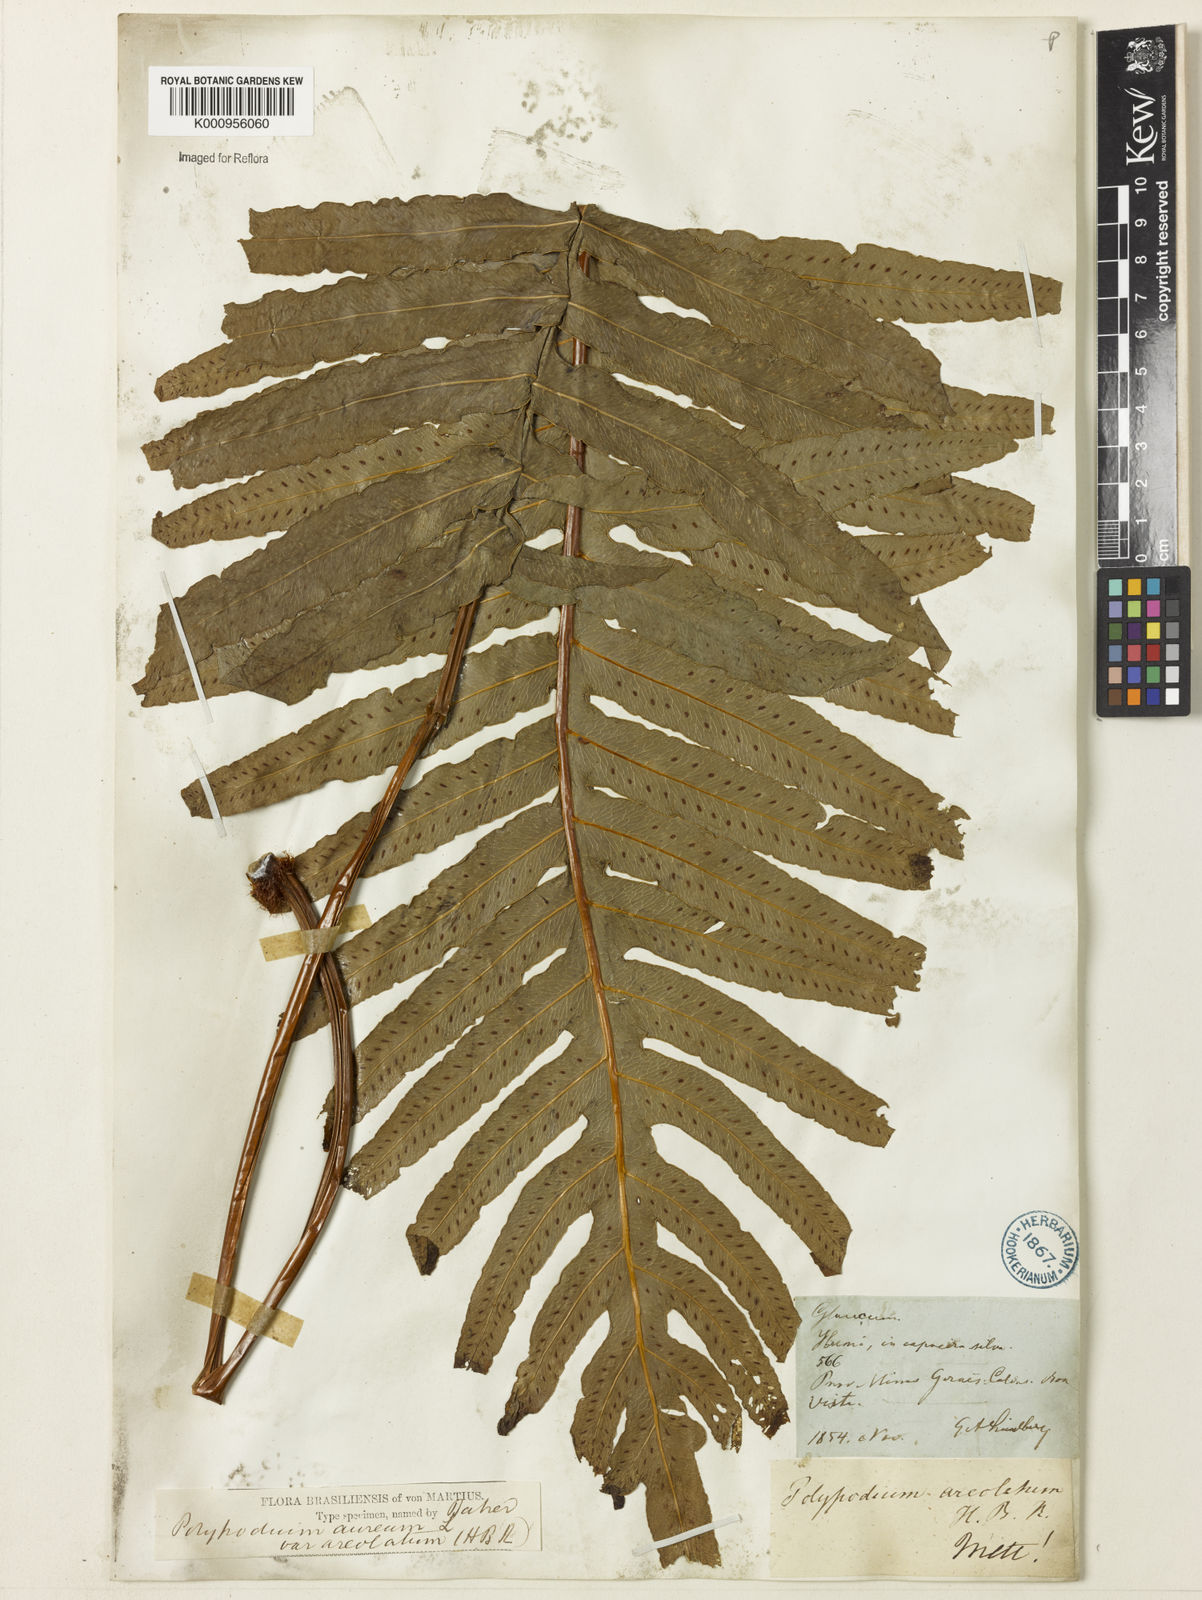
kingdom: Plantae
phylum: Tracheophyta
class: Polypodiopsida
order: Polypodiales
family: Polypodiaceae
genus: Phlebodium
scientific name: Phlebodium aureum
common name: Gold-foot fern
